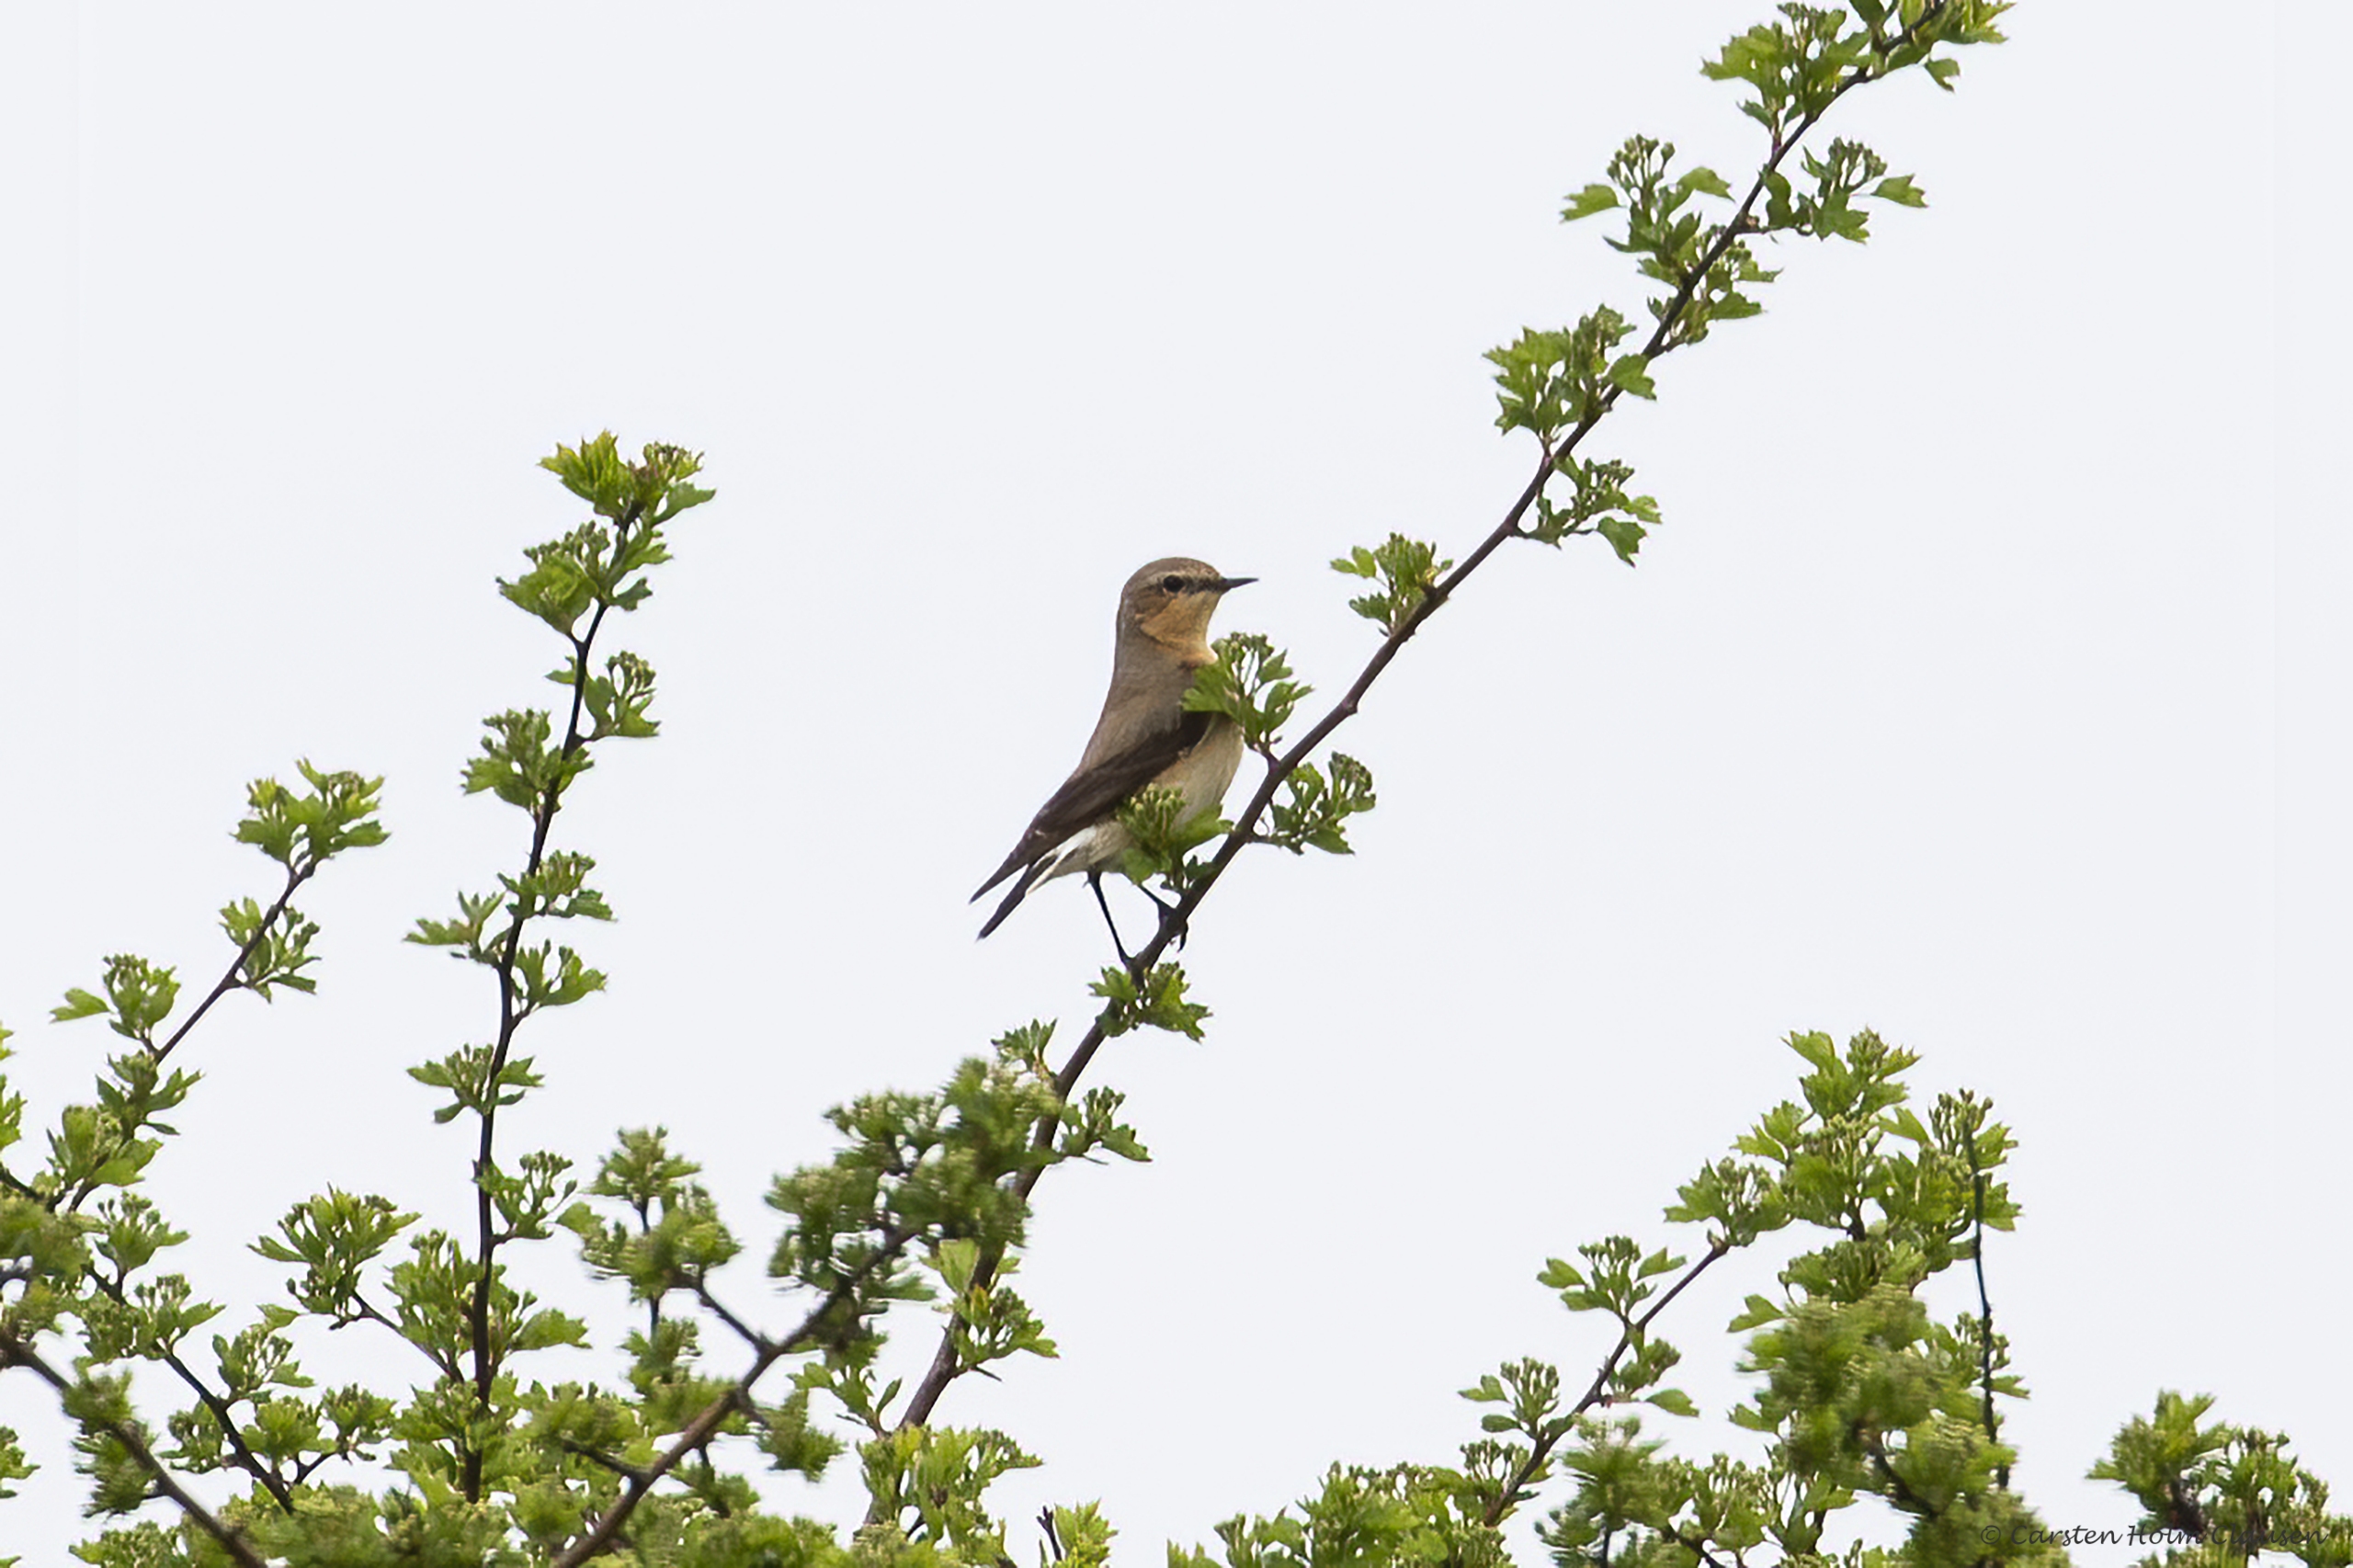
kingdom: Animalia
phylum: Chordata
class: Aves
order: Passeriformes
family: Muscicapidae
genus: Oenanthe
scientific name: Oenanthe oenanthe
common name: Stenpikker
